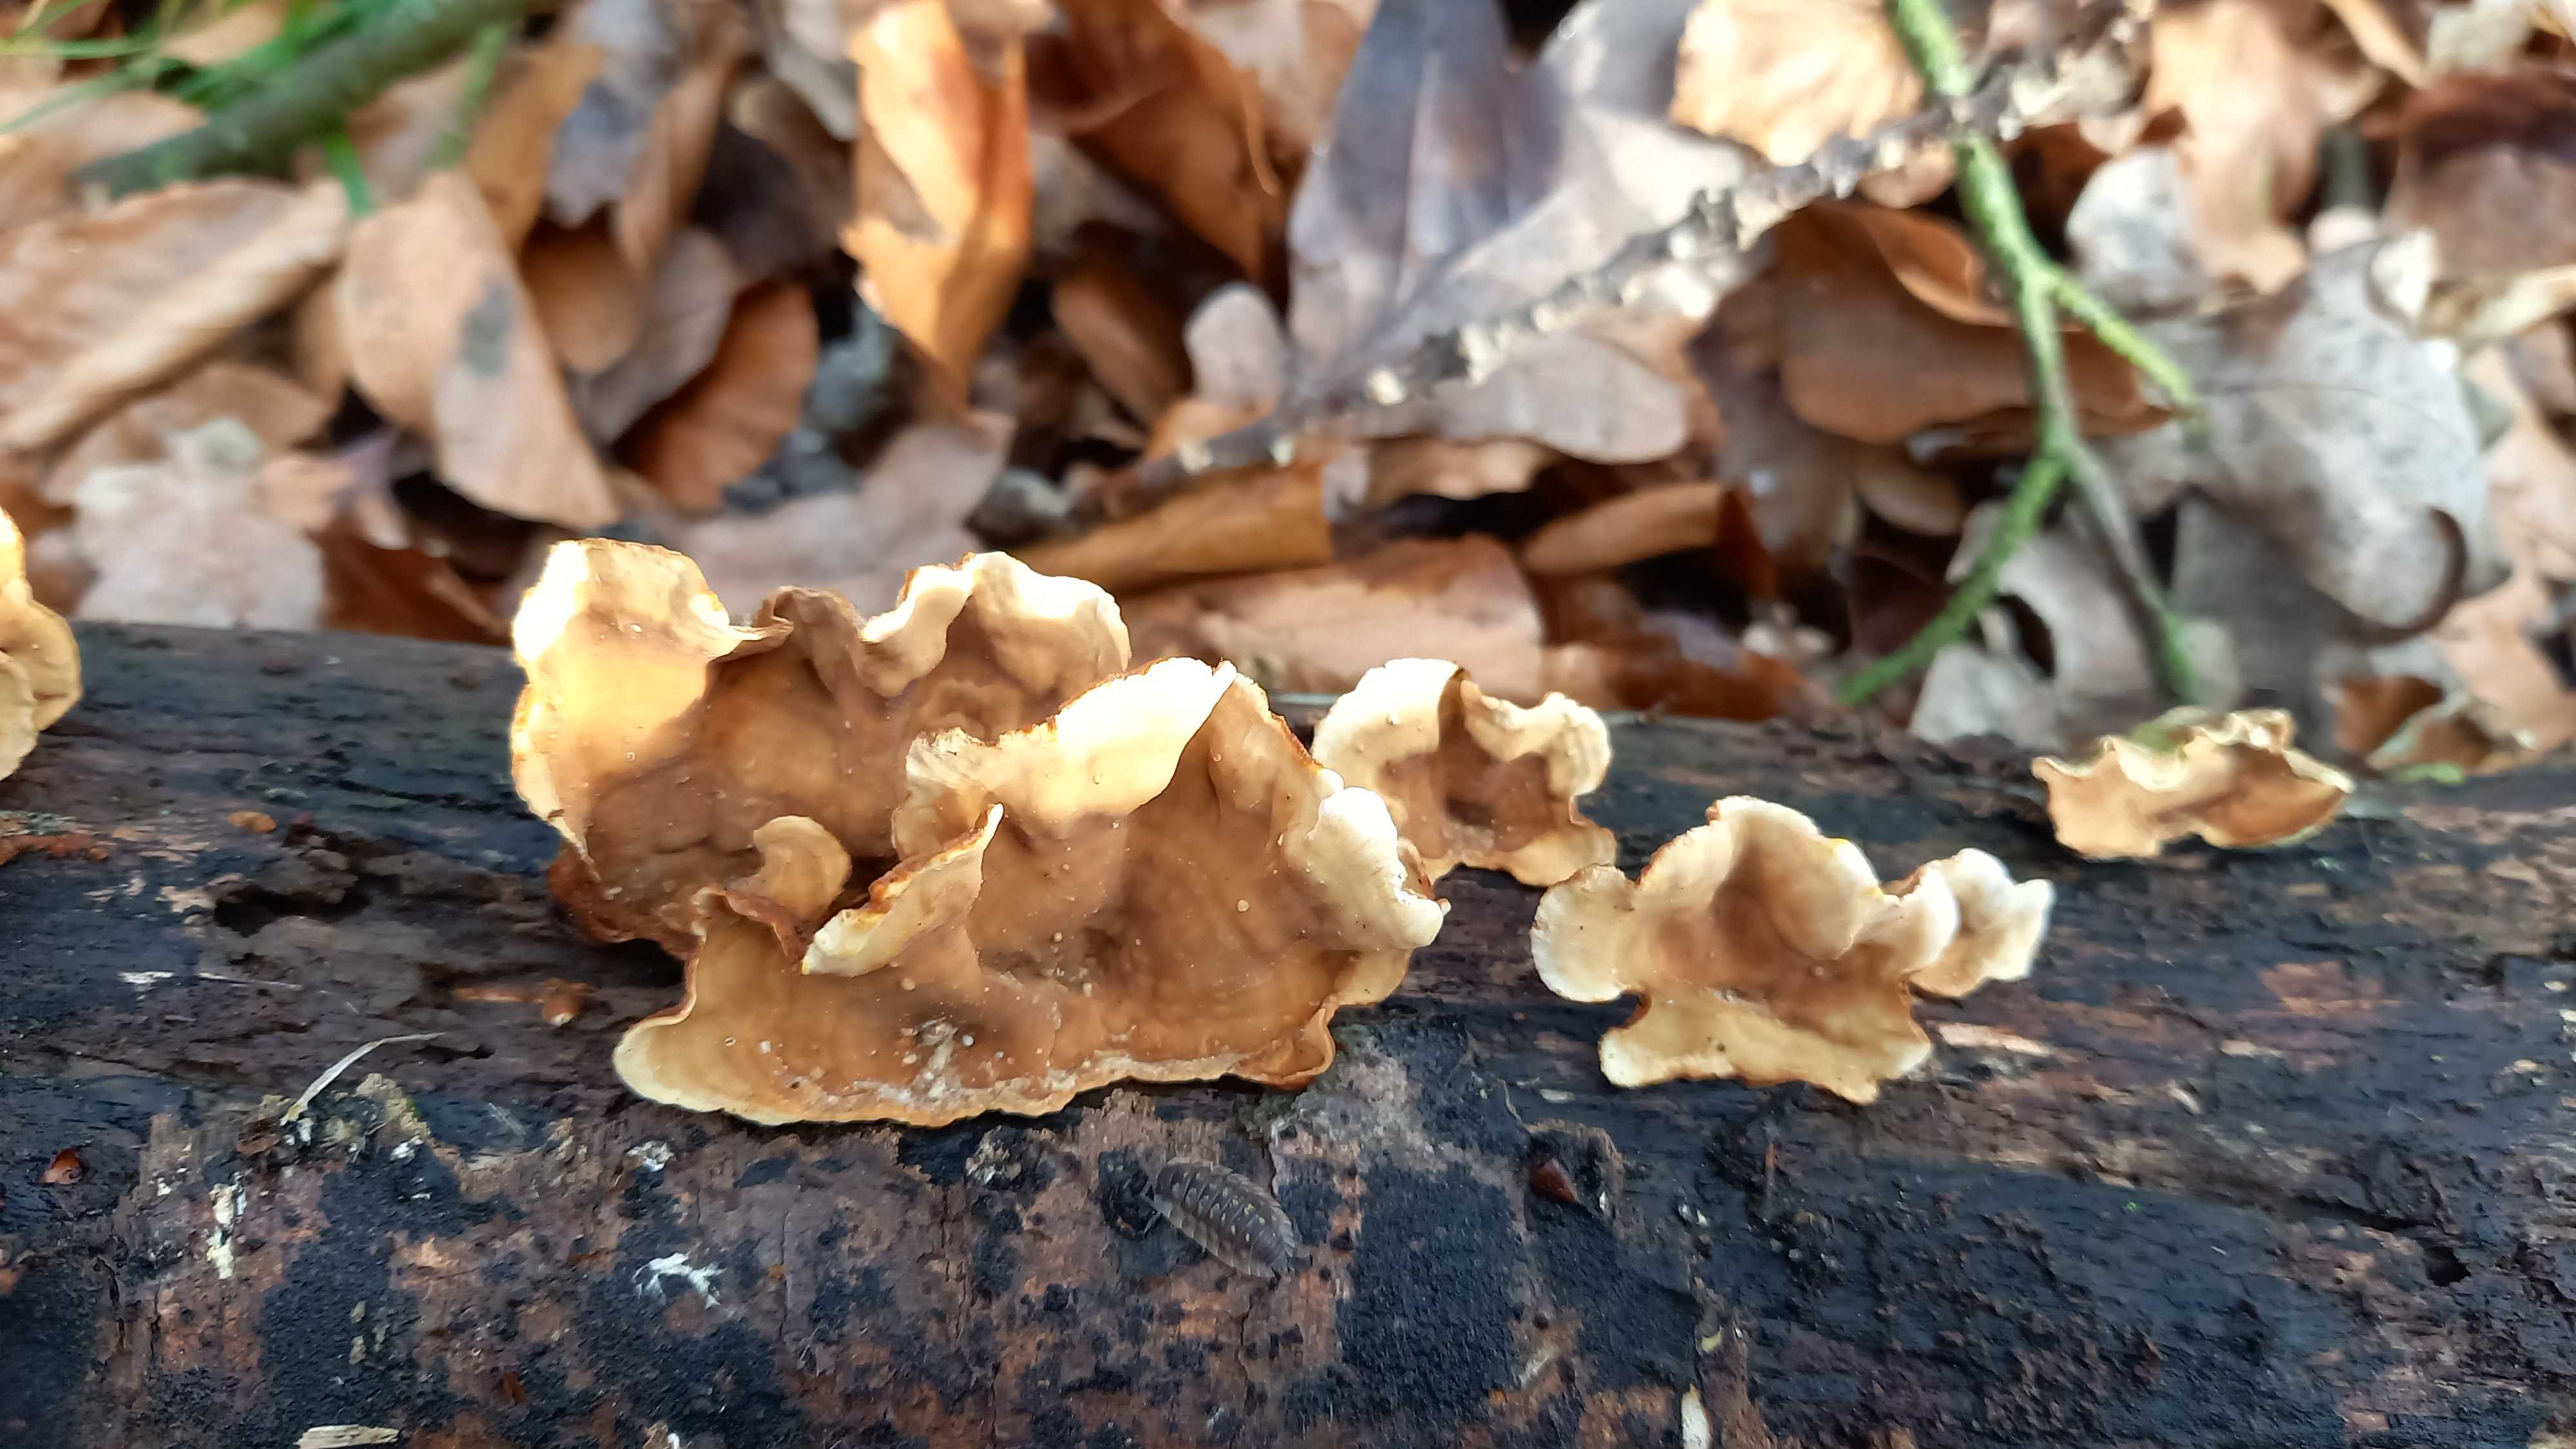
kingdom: Fungi
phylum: Basidiomycota
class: Agaricomycetes
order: Russulales
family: Stereaceae
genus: Stereum
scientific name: Stereum hirsutum
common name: håret lædersvamp
